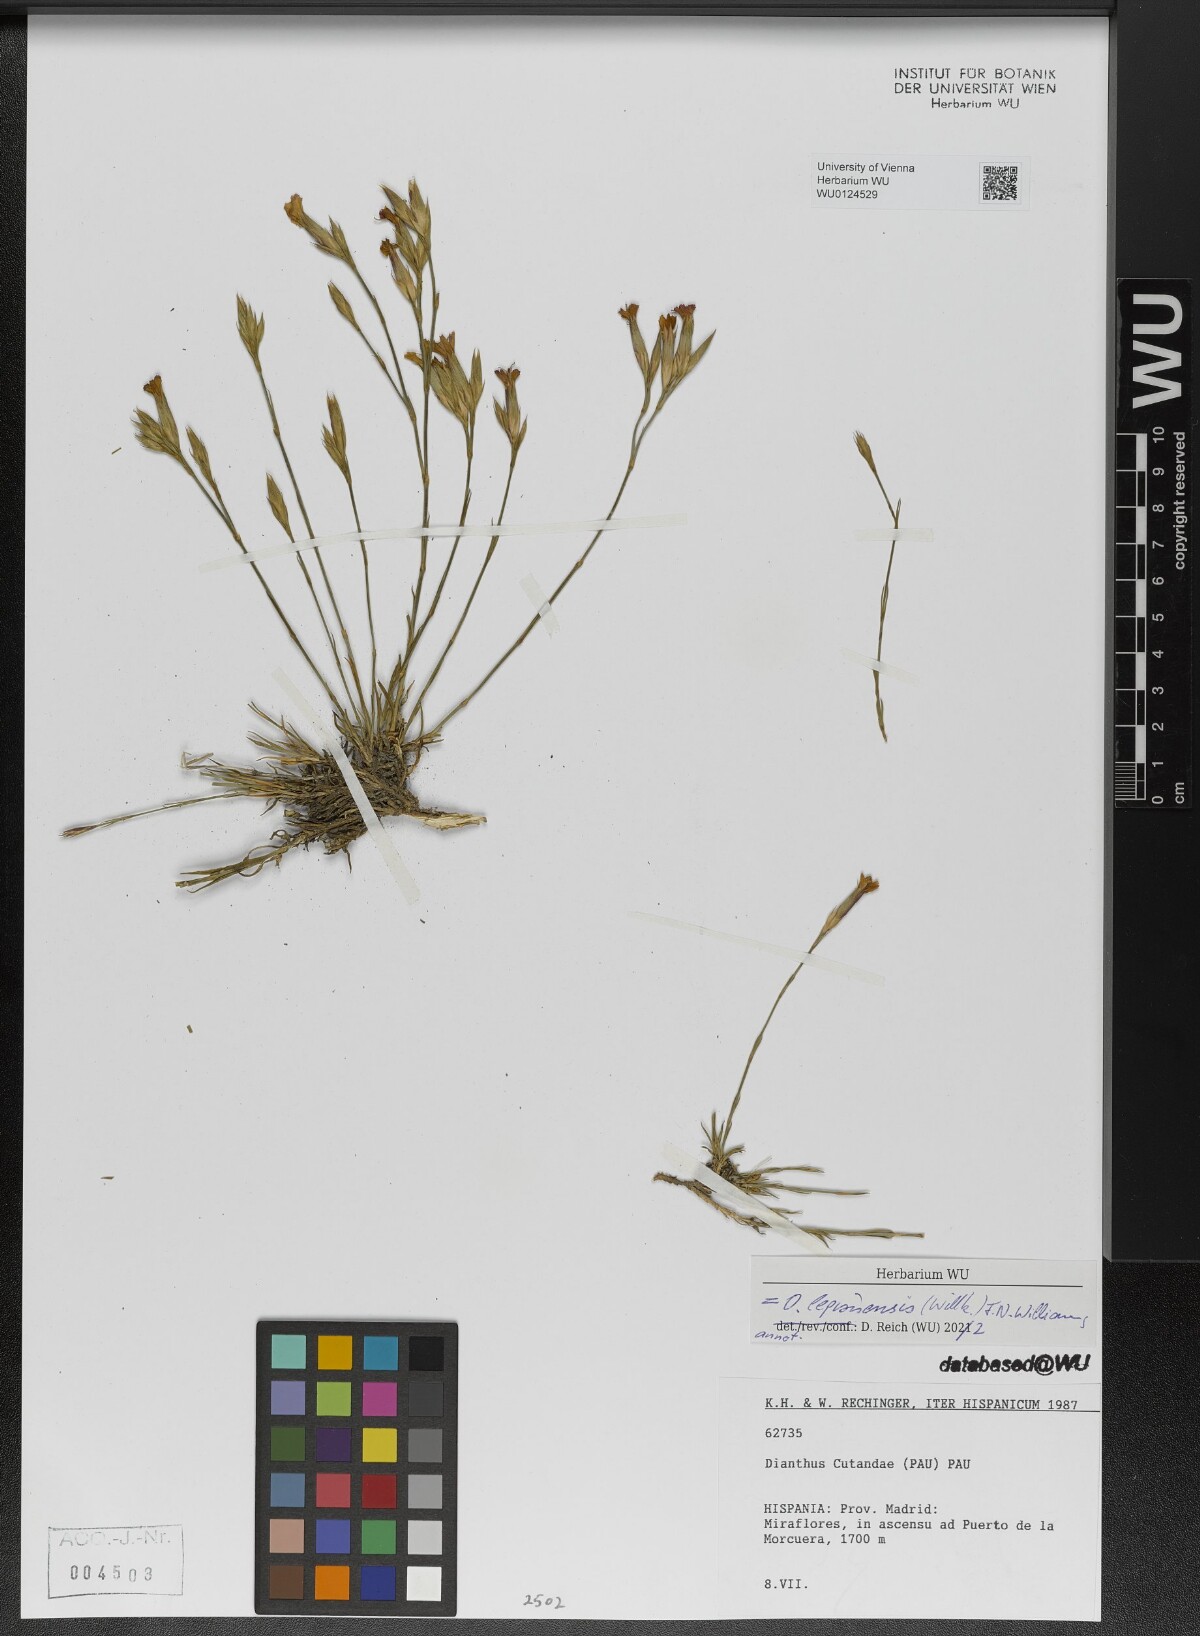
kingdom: Plantae
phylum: Tracheophyta
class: Magnoliopsida
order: Caryophyllales
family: Caryophyllaceae
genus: Dianthus
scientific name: Dianthus legionensis
